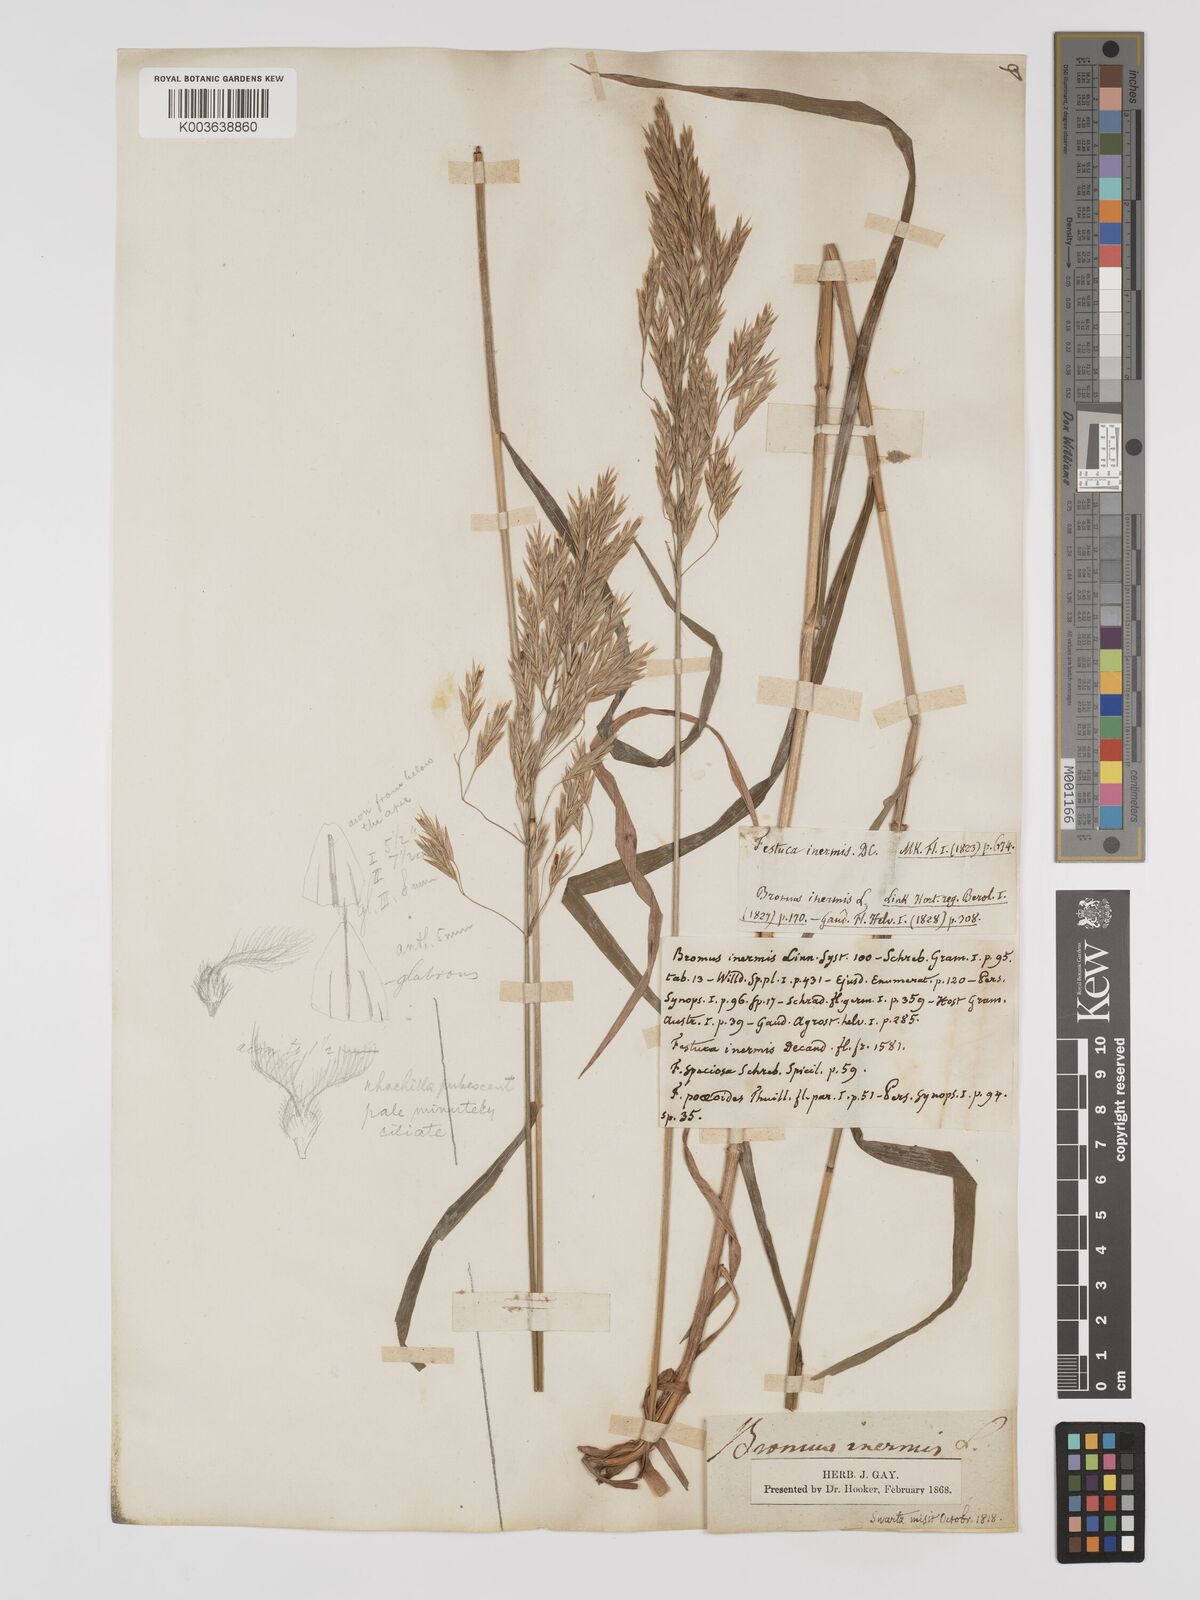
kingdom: Plantae
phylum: Tracheophyta
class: Liliopsida
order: Poales
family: Poaceae
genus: Bromus
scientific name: Bromus inermis
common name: Smooth brome
